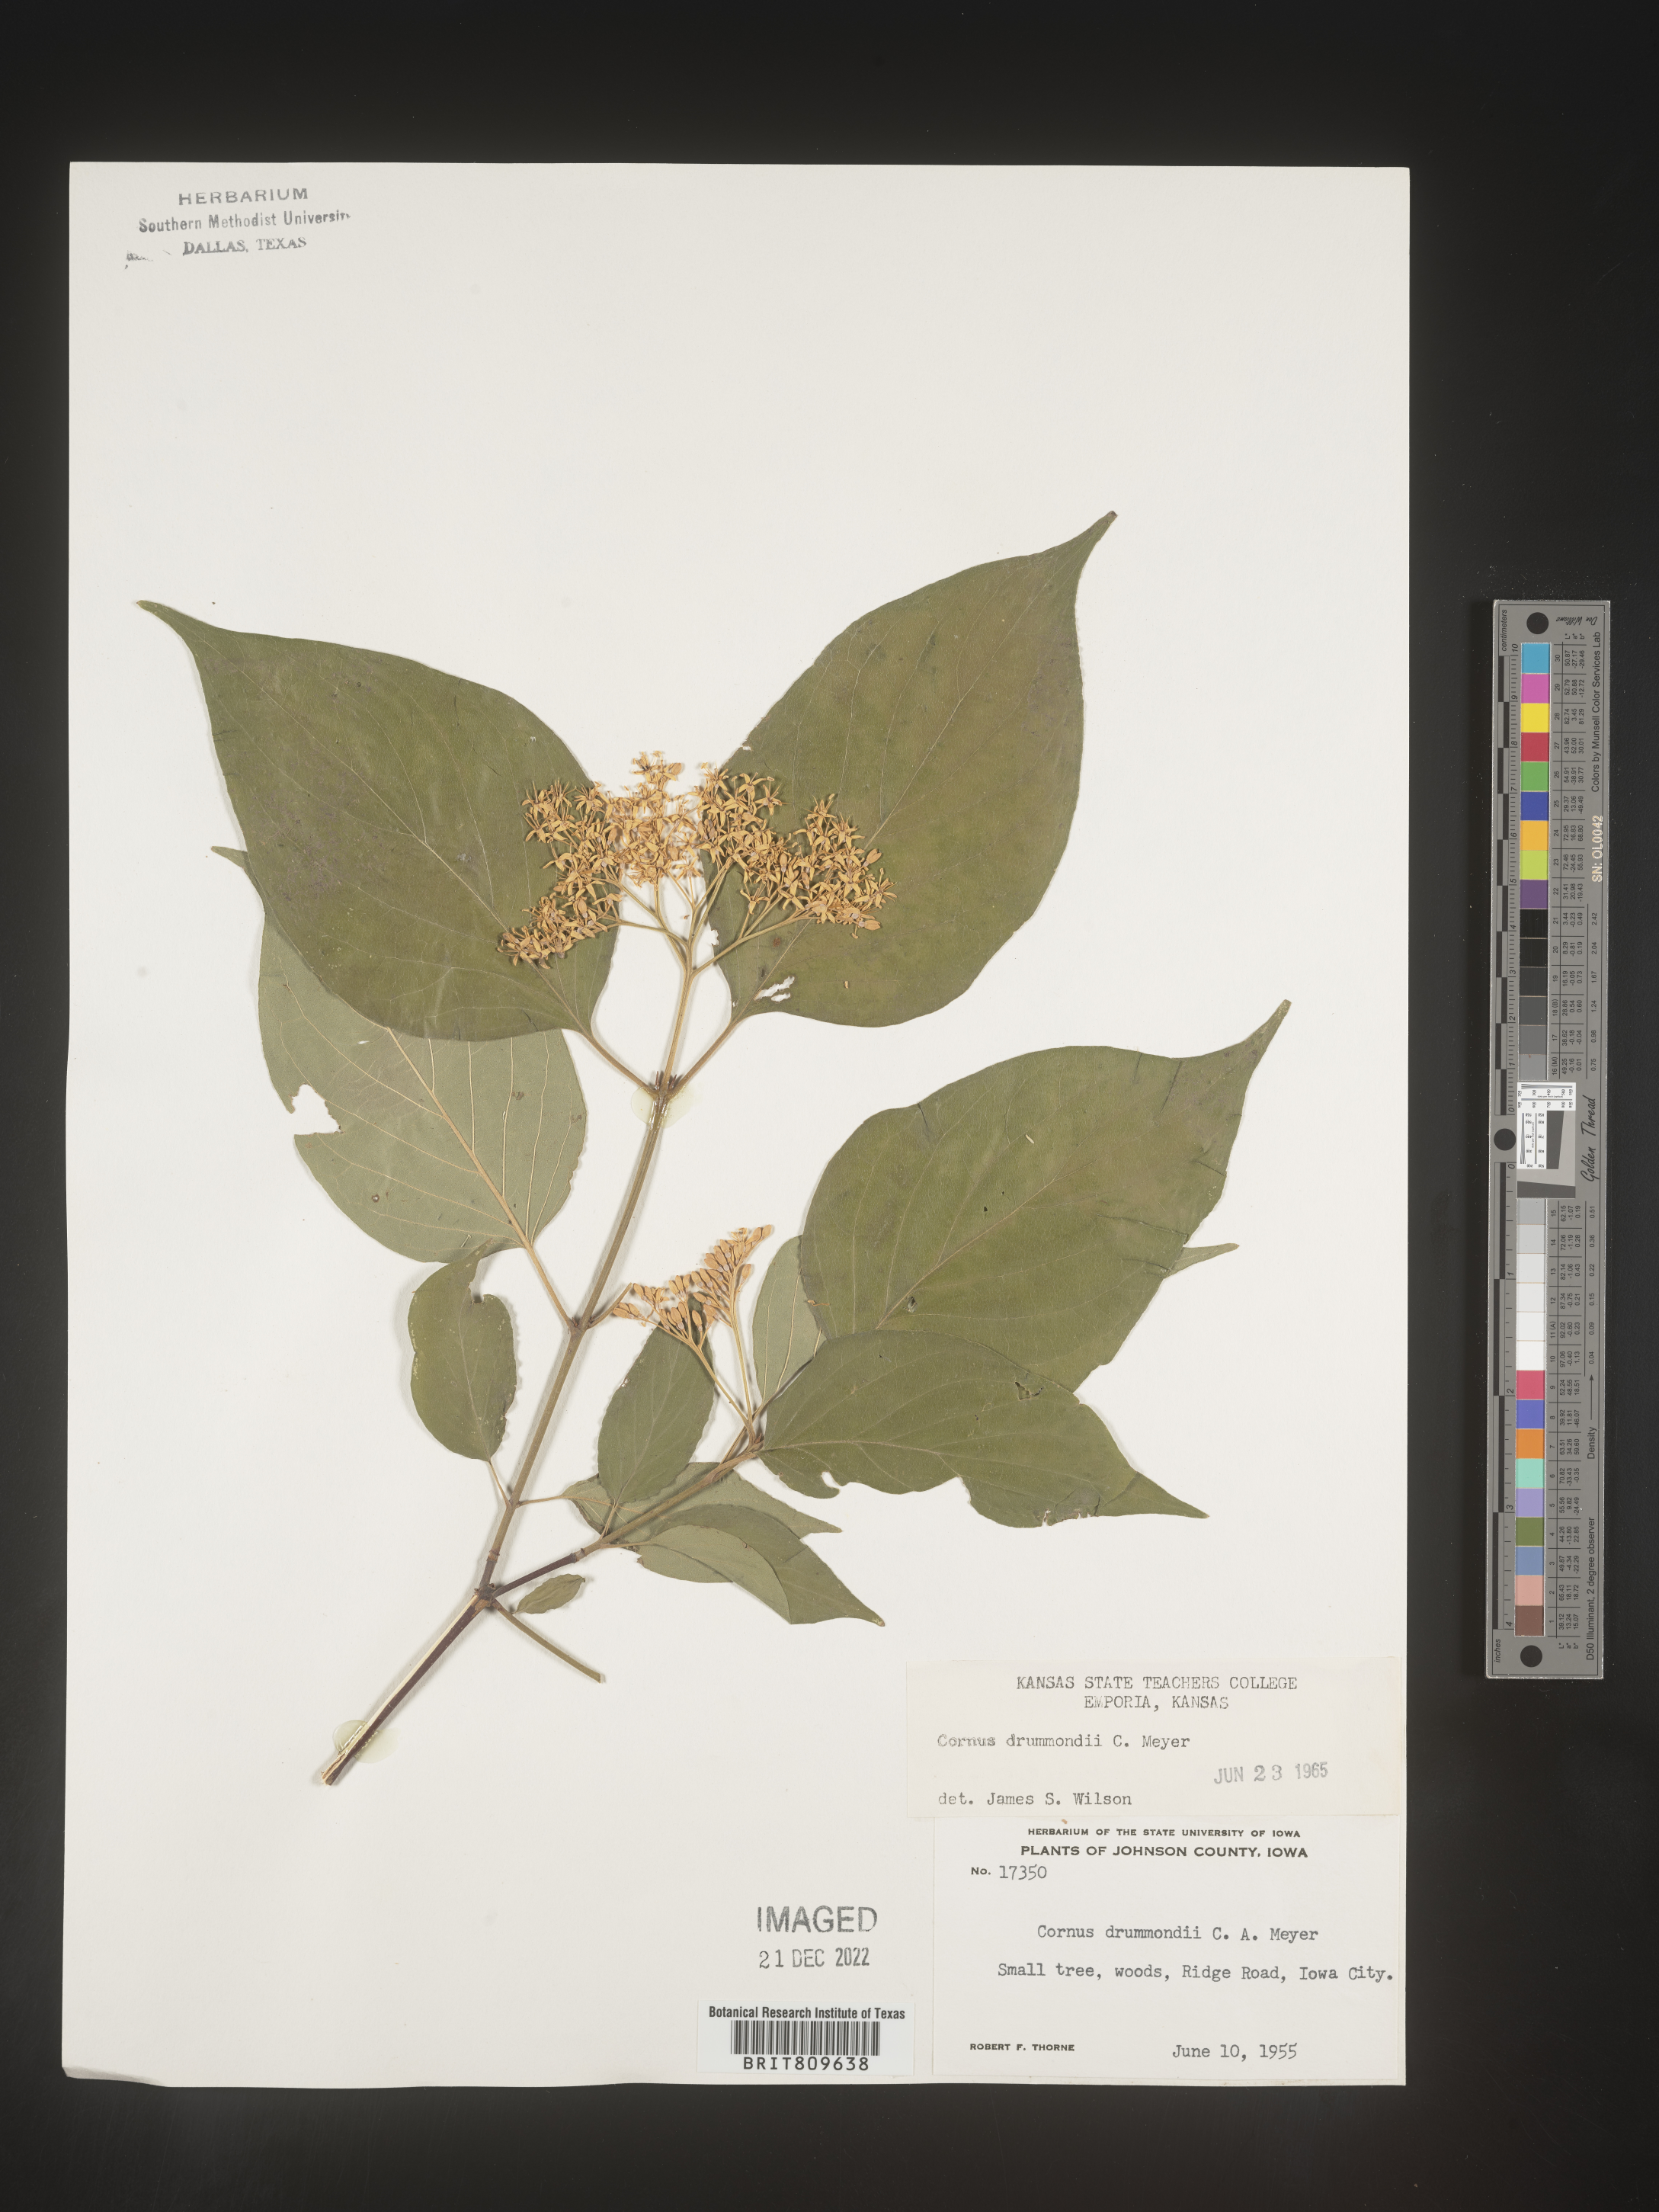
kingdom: Plantae
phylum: Tracheophyta
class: Magnoliopsida
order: Cornales
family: Cornaceae
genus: Cornus
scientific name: Cornus drummondii
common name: Rough-leaf dogwood
